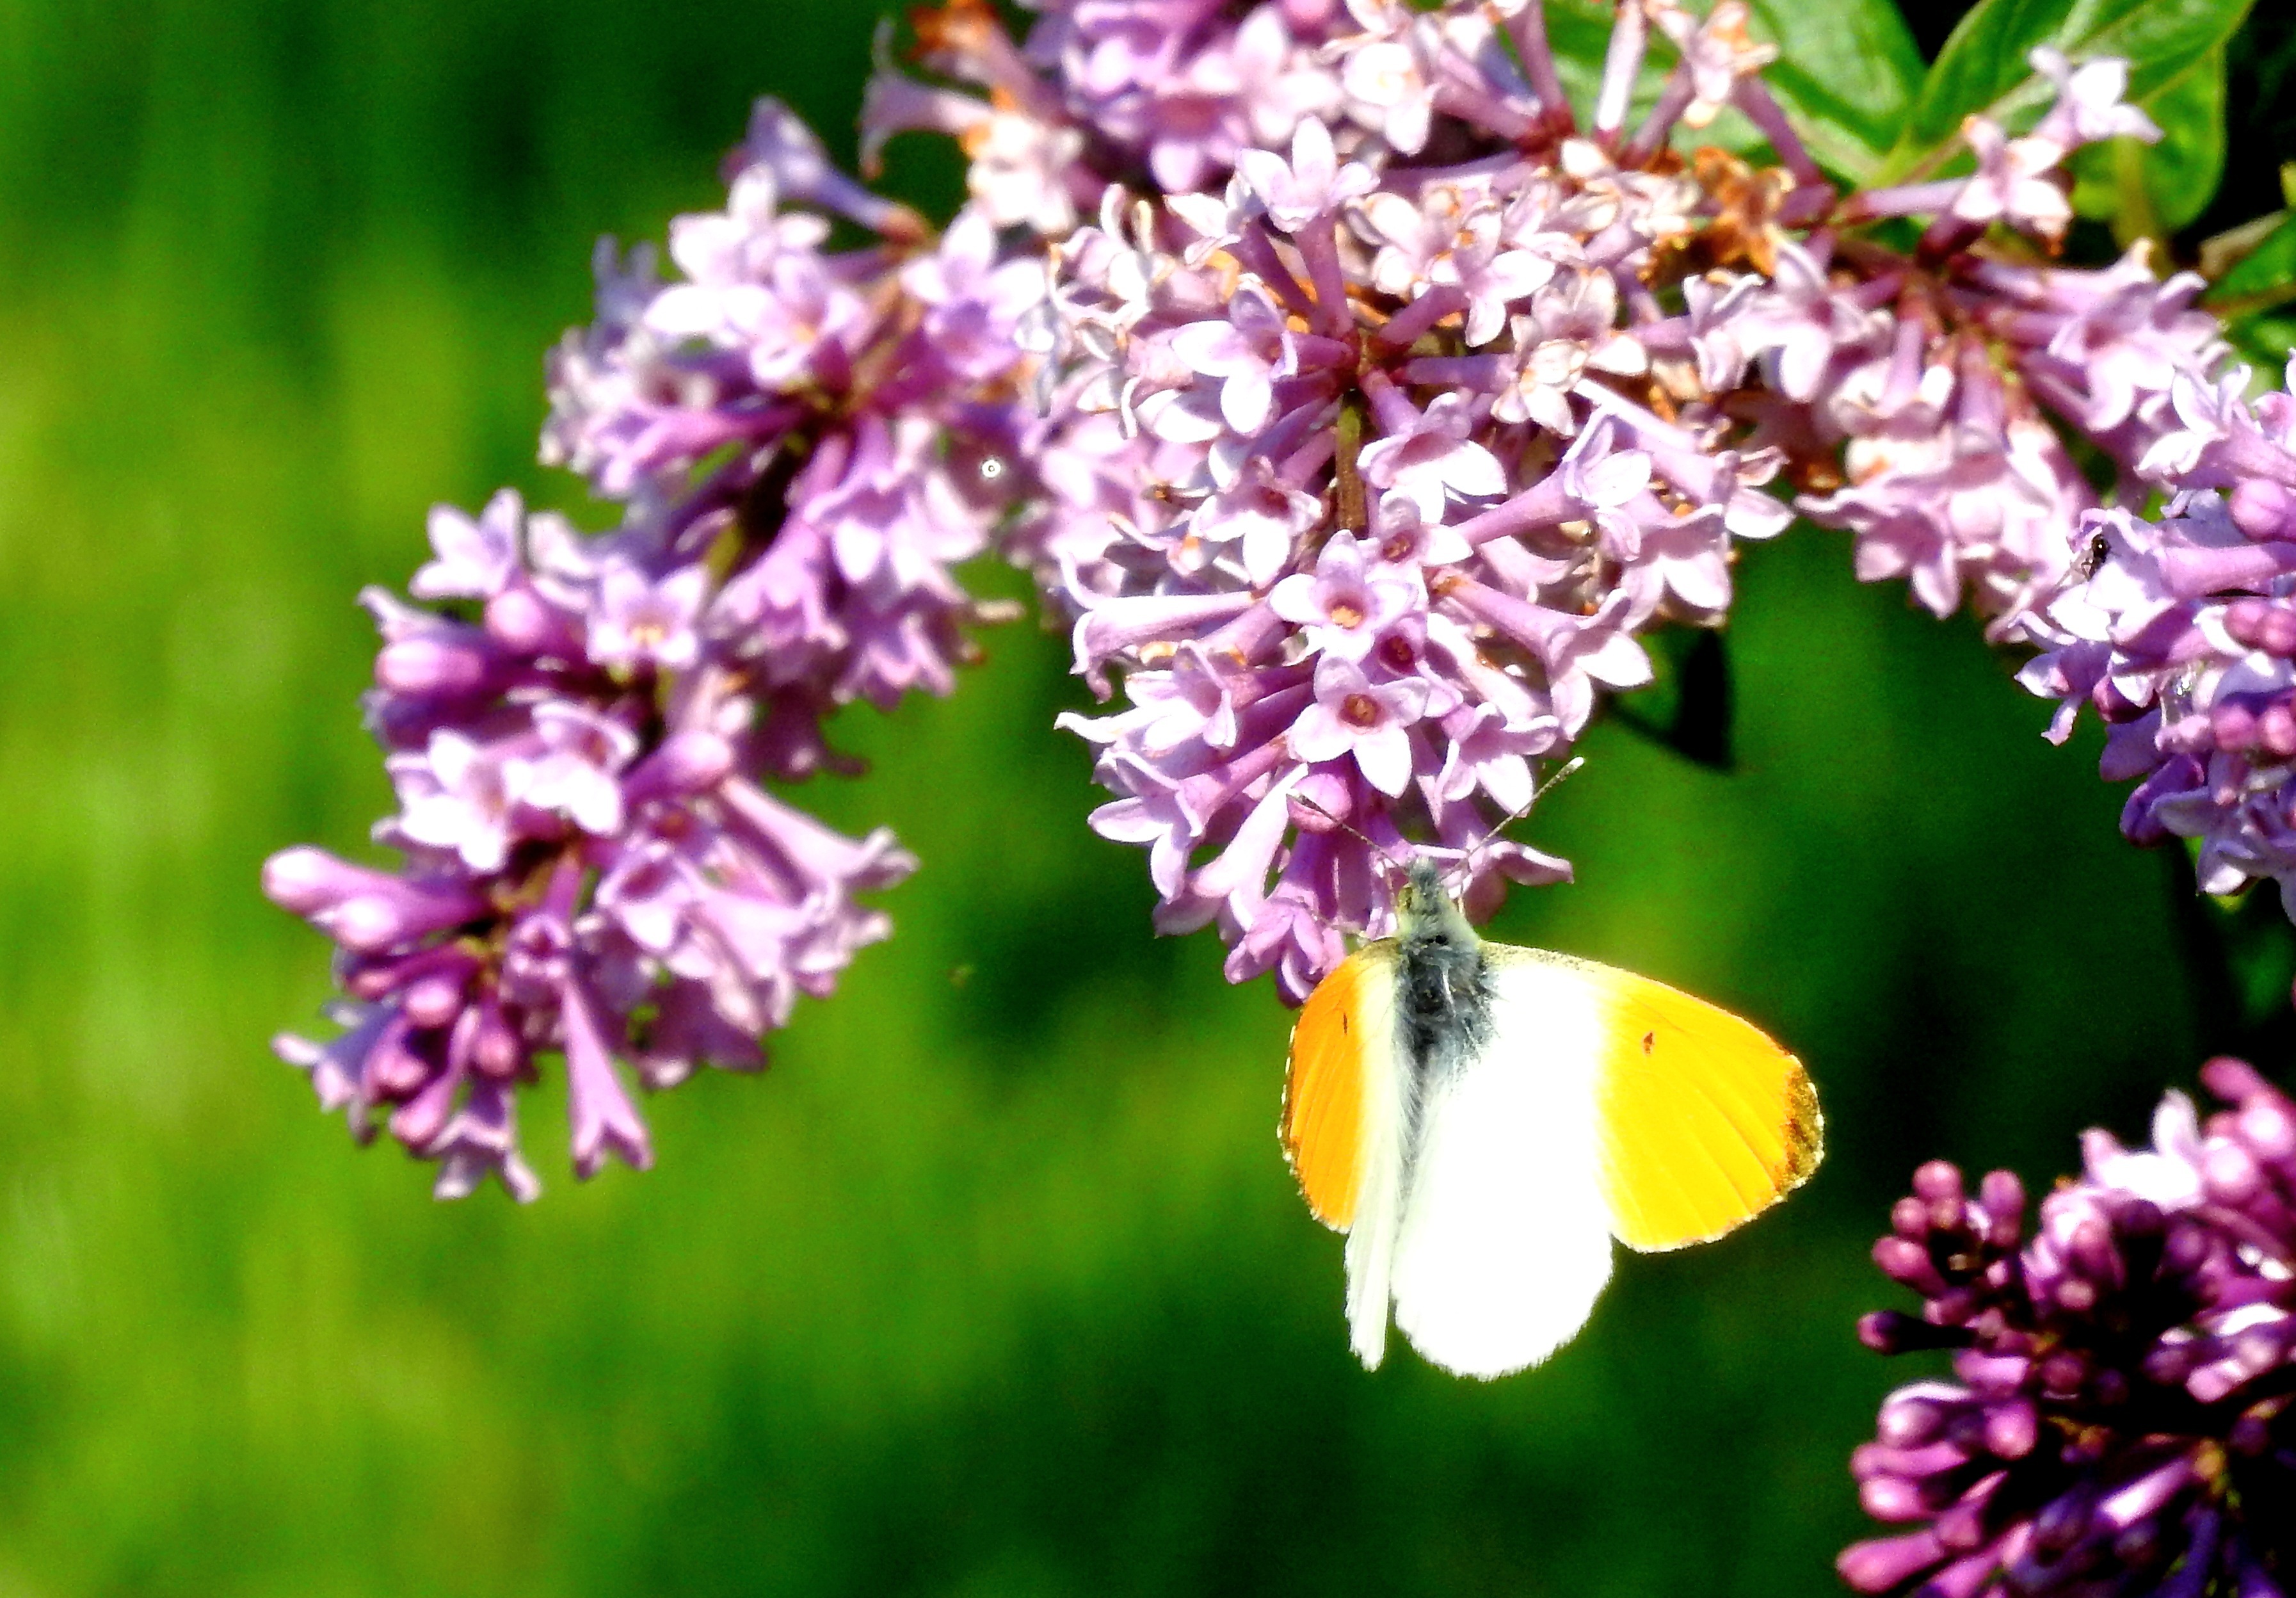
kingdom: Animalia
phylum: Arthropoda
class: Insecta
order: Lepidoptera
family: Pieridae
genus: Anthocharis
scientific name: Anthocharis cardamines
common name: Orange-tip
